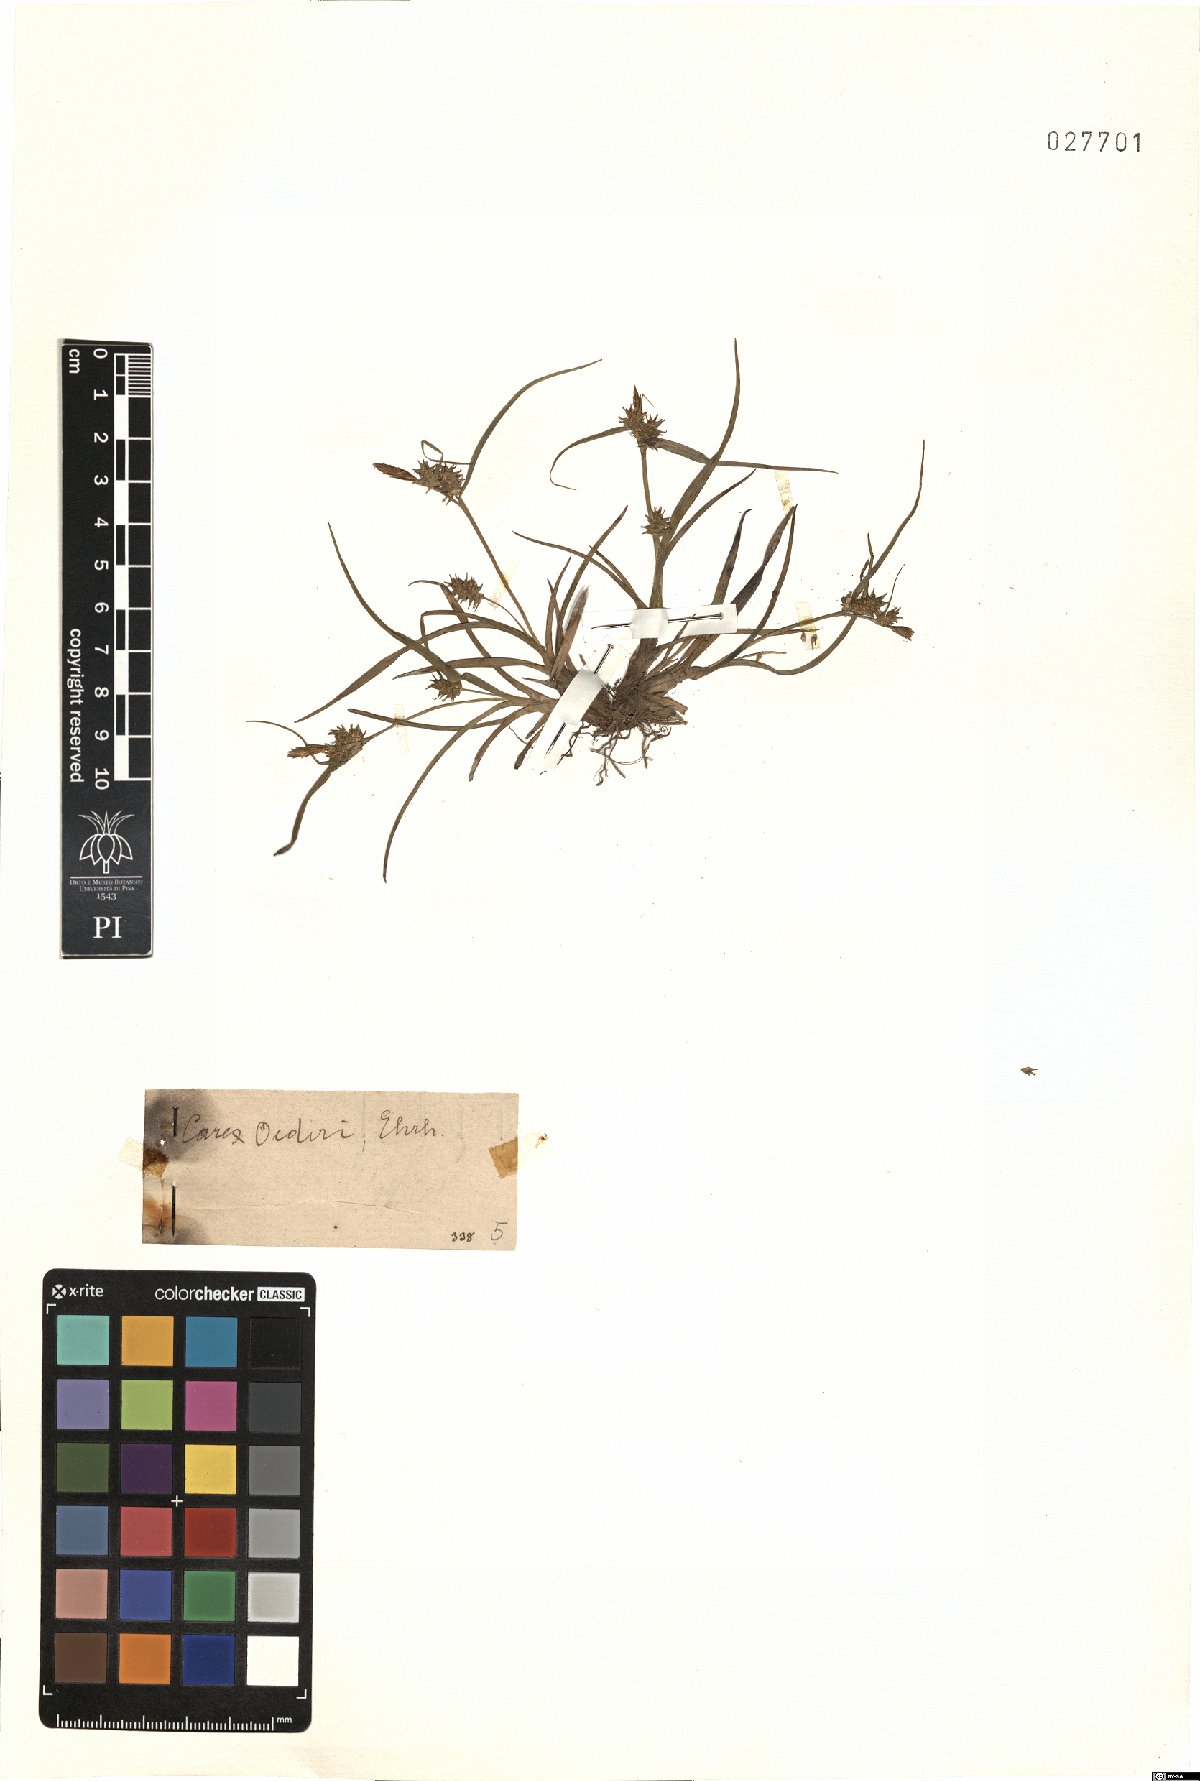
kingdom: Plantae
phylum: Tracheophyta
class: Liliopsida
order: Poales
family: Cyperaceae
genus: Carex
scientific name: Carex oederi
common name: Common & small-fruited yellow-sedge
